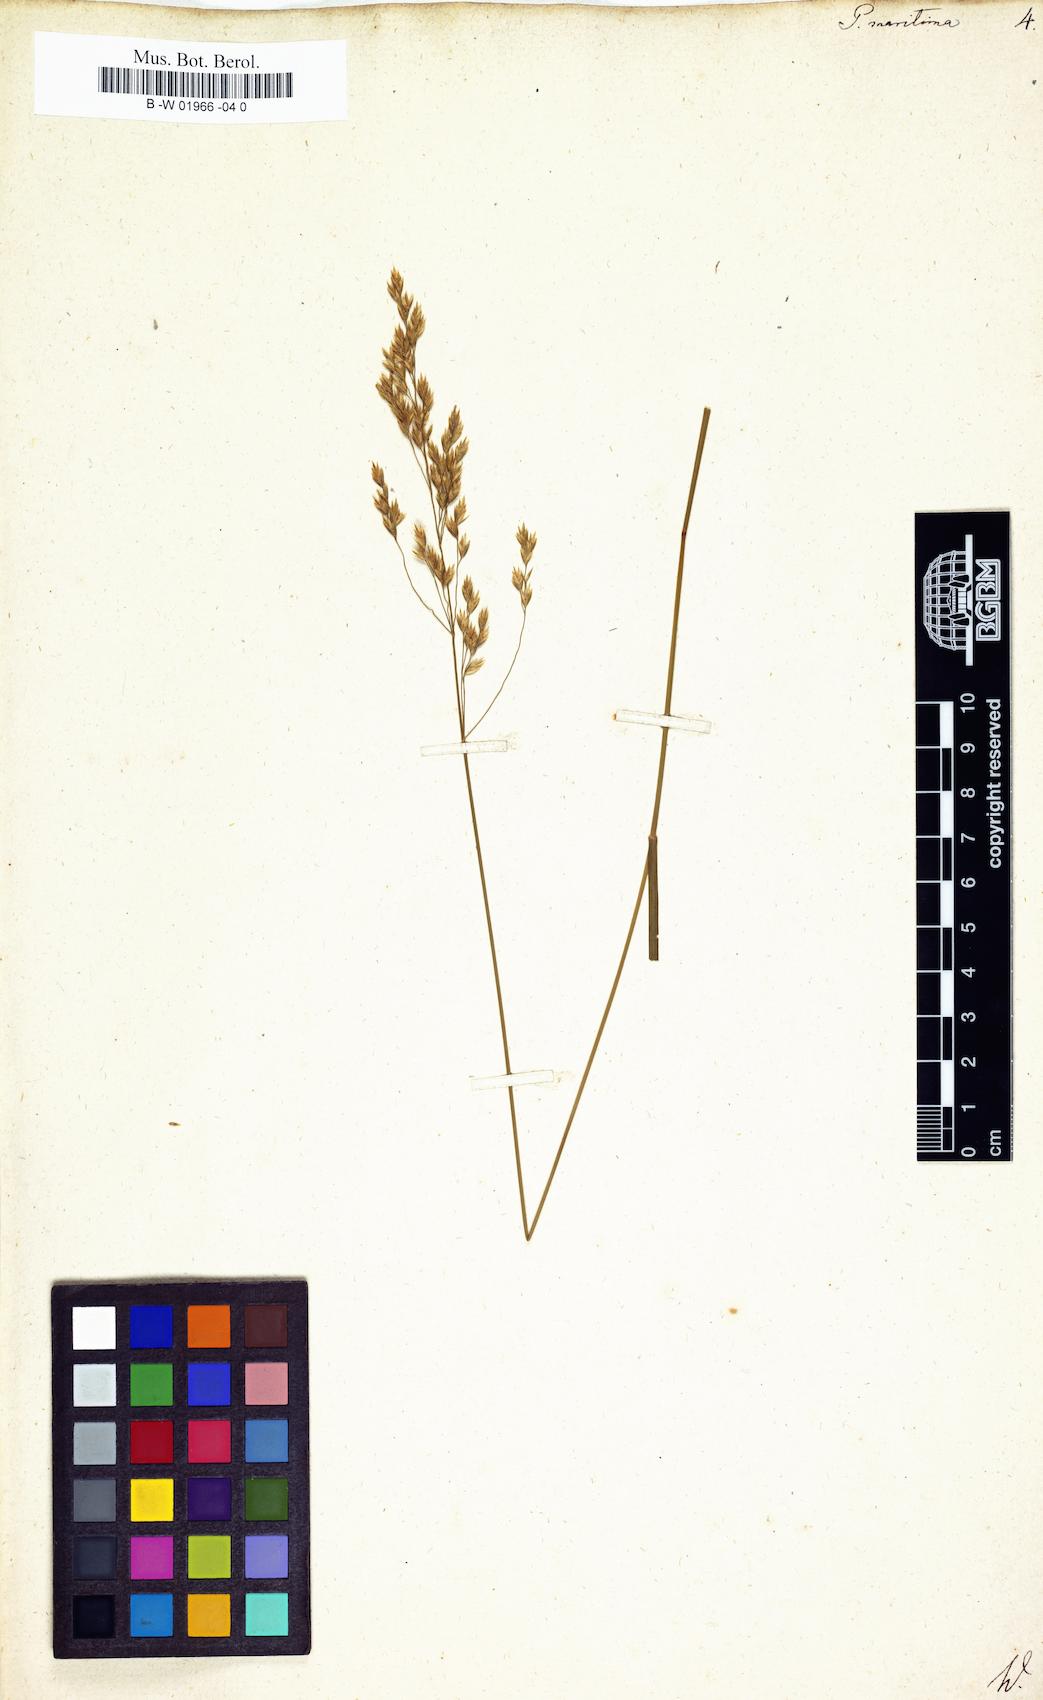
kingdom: Plantae
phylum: Tracheophyta
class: Liliopsida
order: Poales
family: Poaceae
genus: Poa
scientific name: Poa maritima
